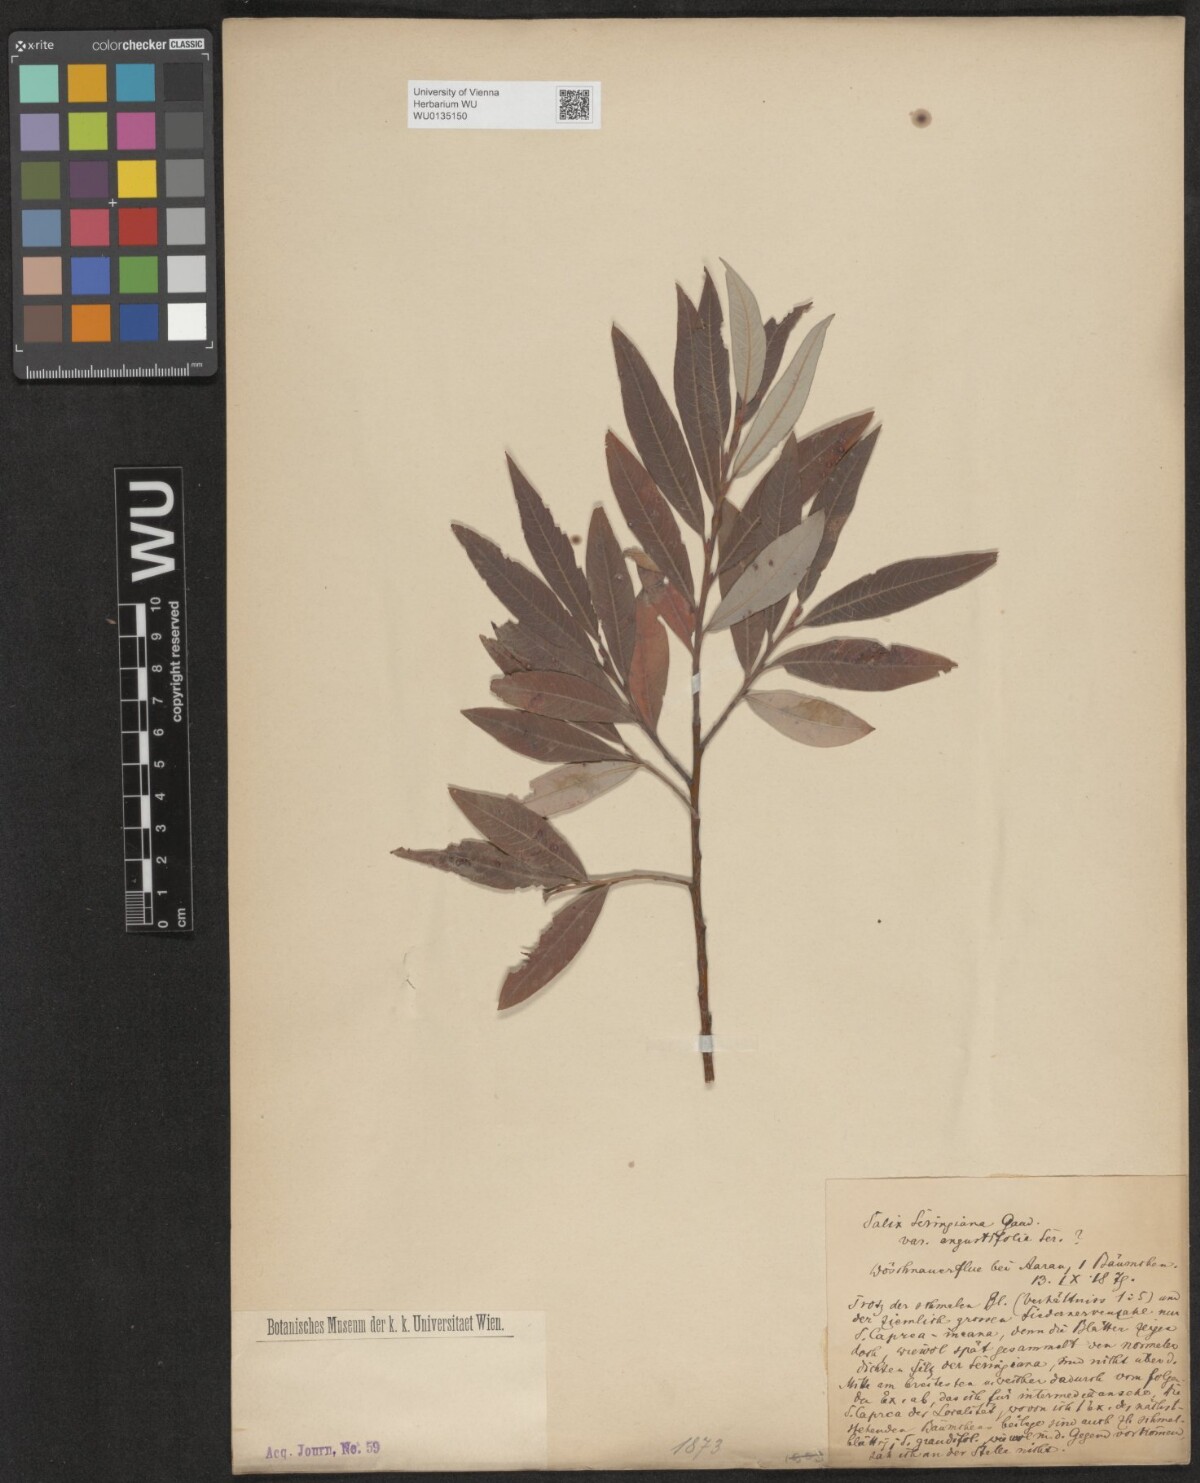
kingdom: Plantae
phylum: Tracheophyta
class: Magnoliopsida
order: Malpighiales
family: Salicaceae
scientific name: Salicaceae
